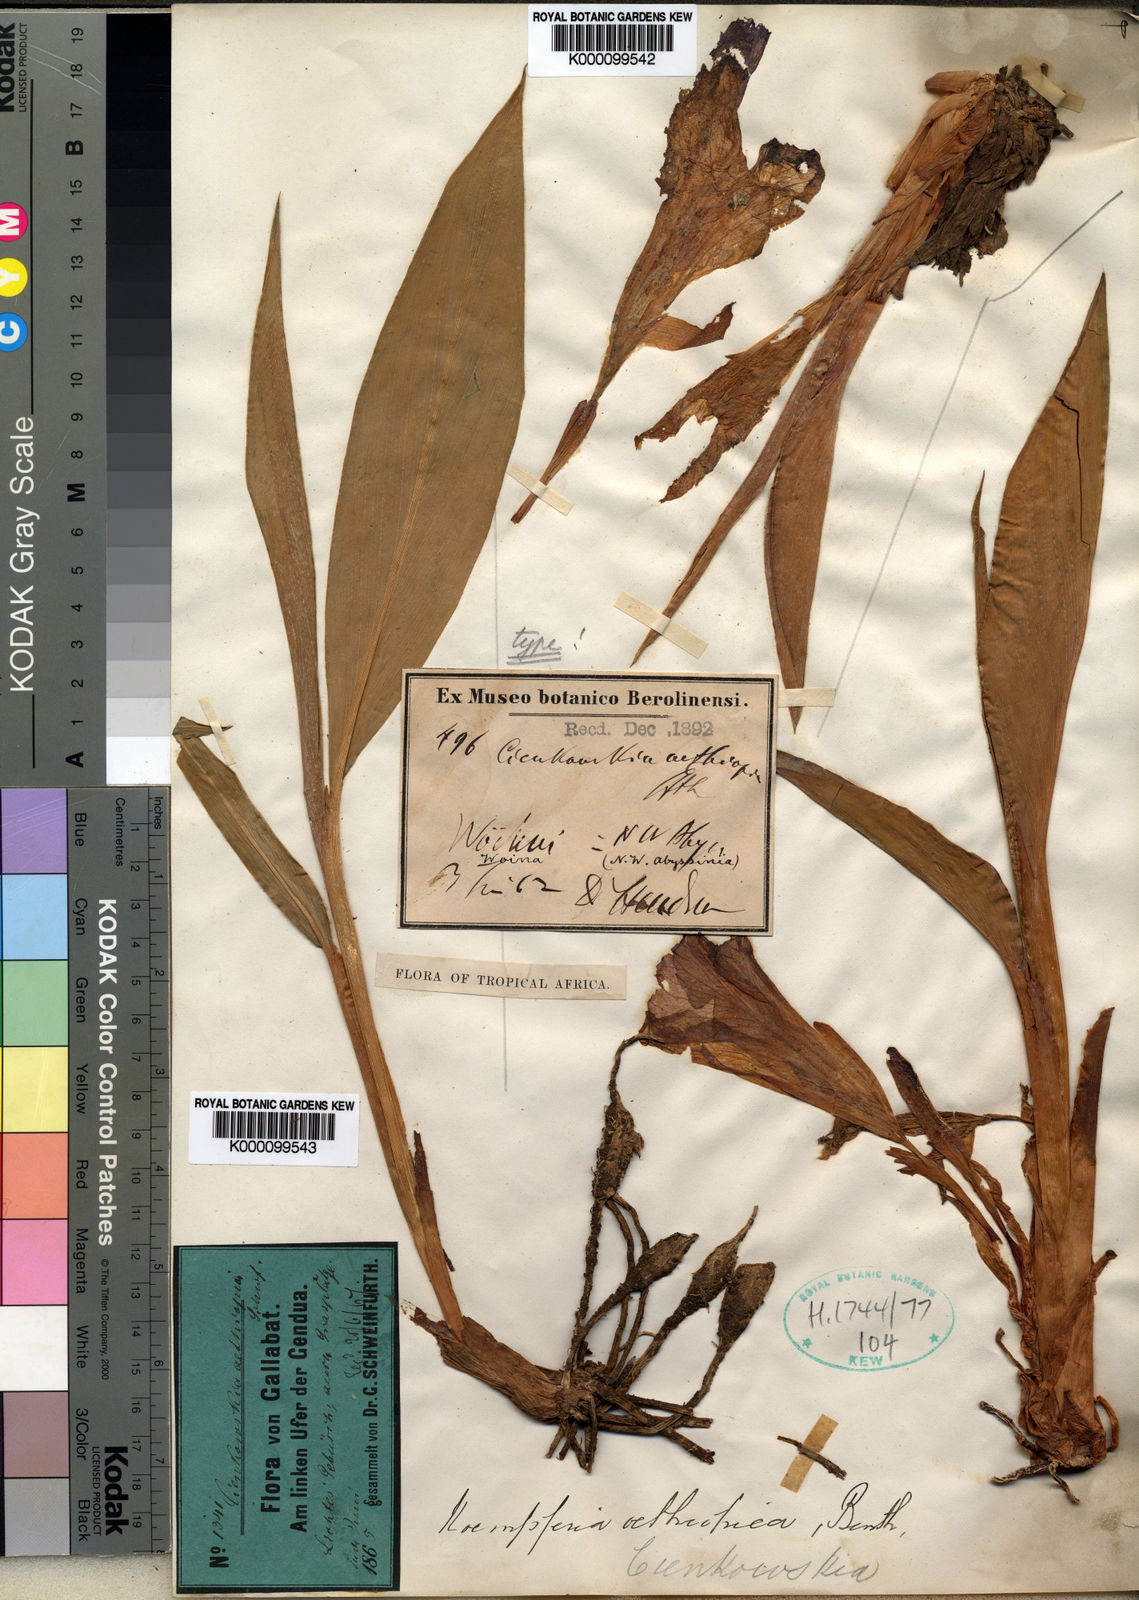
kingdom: Plantae
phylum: Tracheophyta
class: Liliopsida
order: Zingiberales
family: Zingiberaceae
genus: Siphonochilus
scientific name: Siphonochilus aethiopicus
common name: African-ginger
